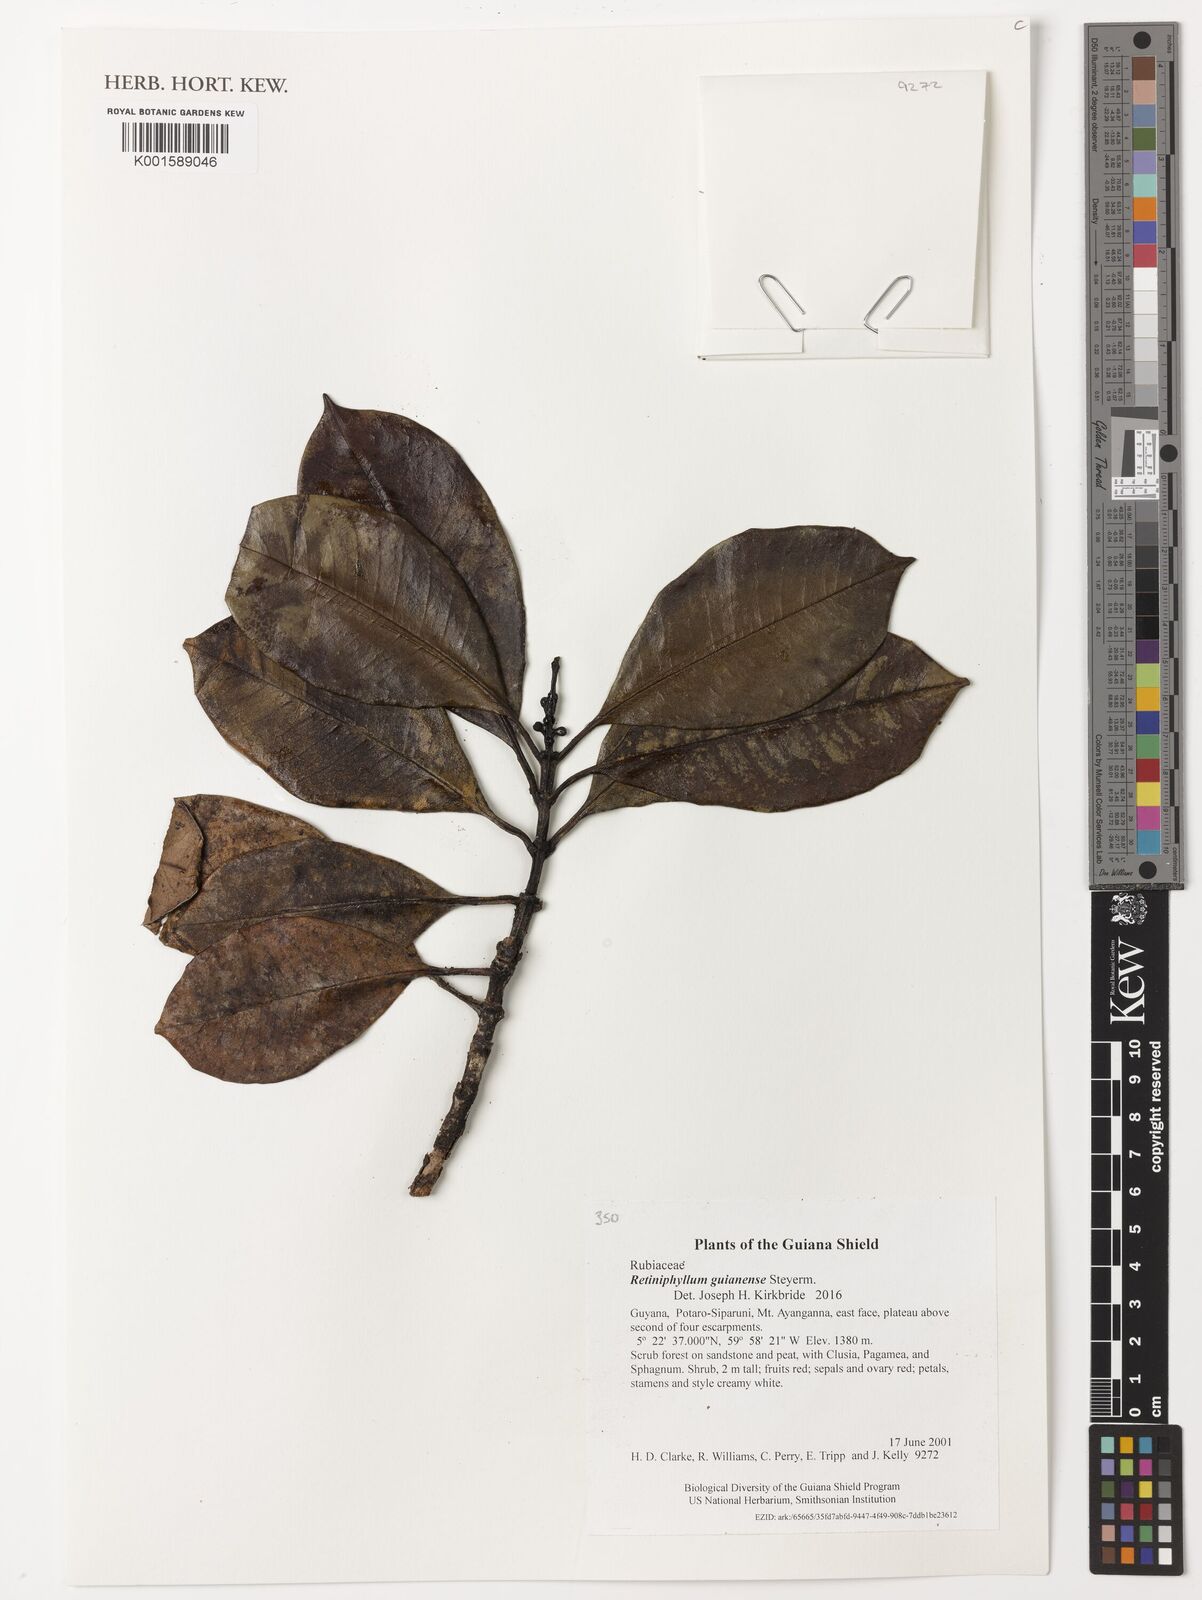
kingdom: Plantae
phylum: Tracheophyta
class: Magnoliopsida
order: Gentianales
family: Rubiaceae
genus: Retiniphyllum
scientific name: Retiniphyllum guianense
